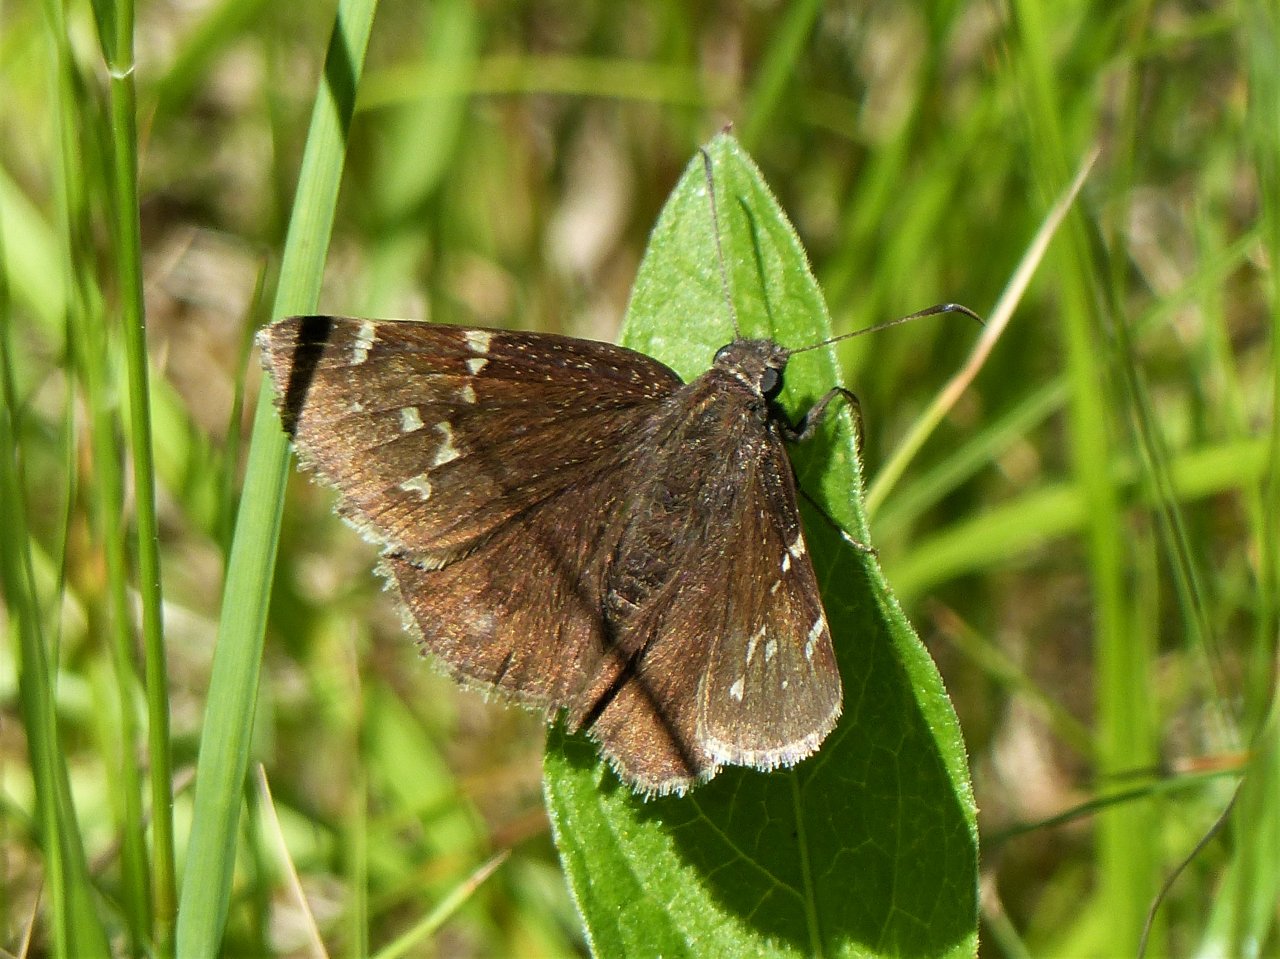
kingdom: Animalia
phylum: Arthropoda
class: Insecta
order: Lepidoptera
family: Hesperiidae
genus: Autochton
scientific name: Autochton
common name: Northern Cloudywing
